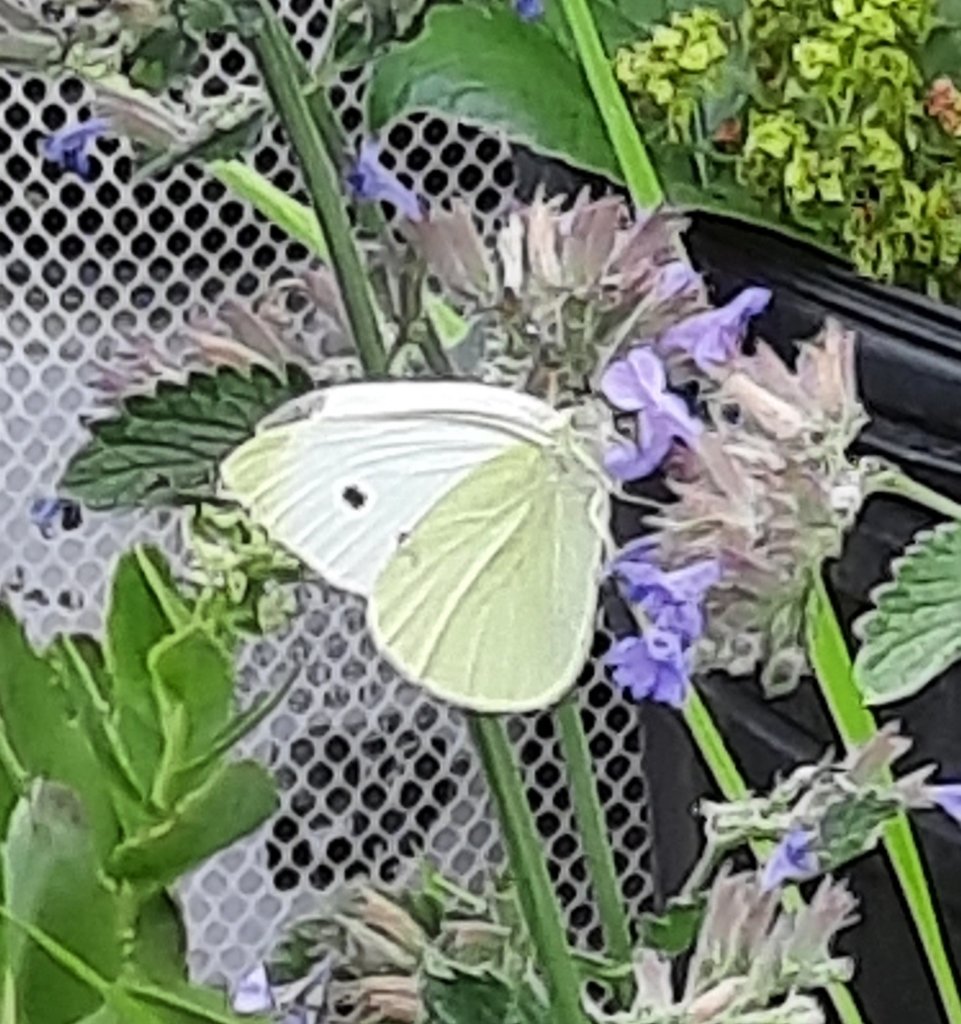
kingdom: Animalia
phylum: Arthropoda
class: Insecta
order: Lepidoptera
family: Pieridae
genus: Pieris
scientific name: Pieris rapae
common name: Cabbage White
